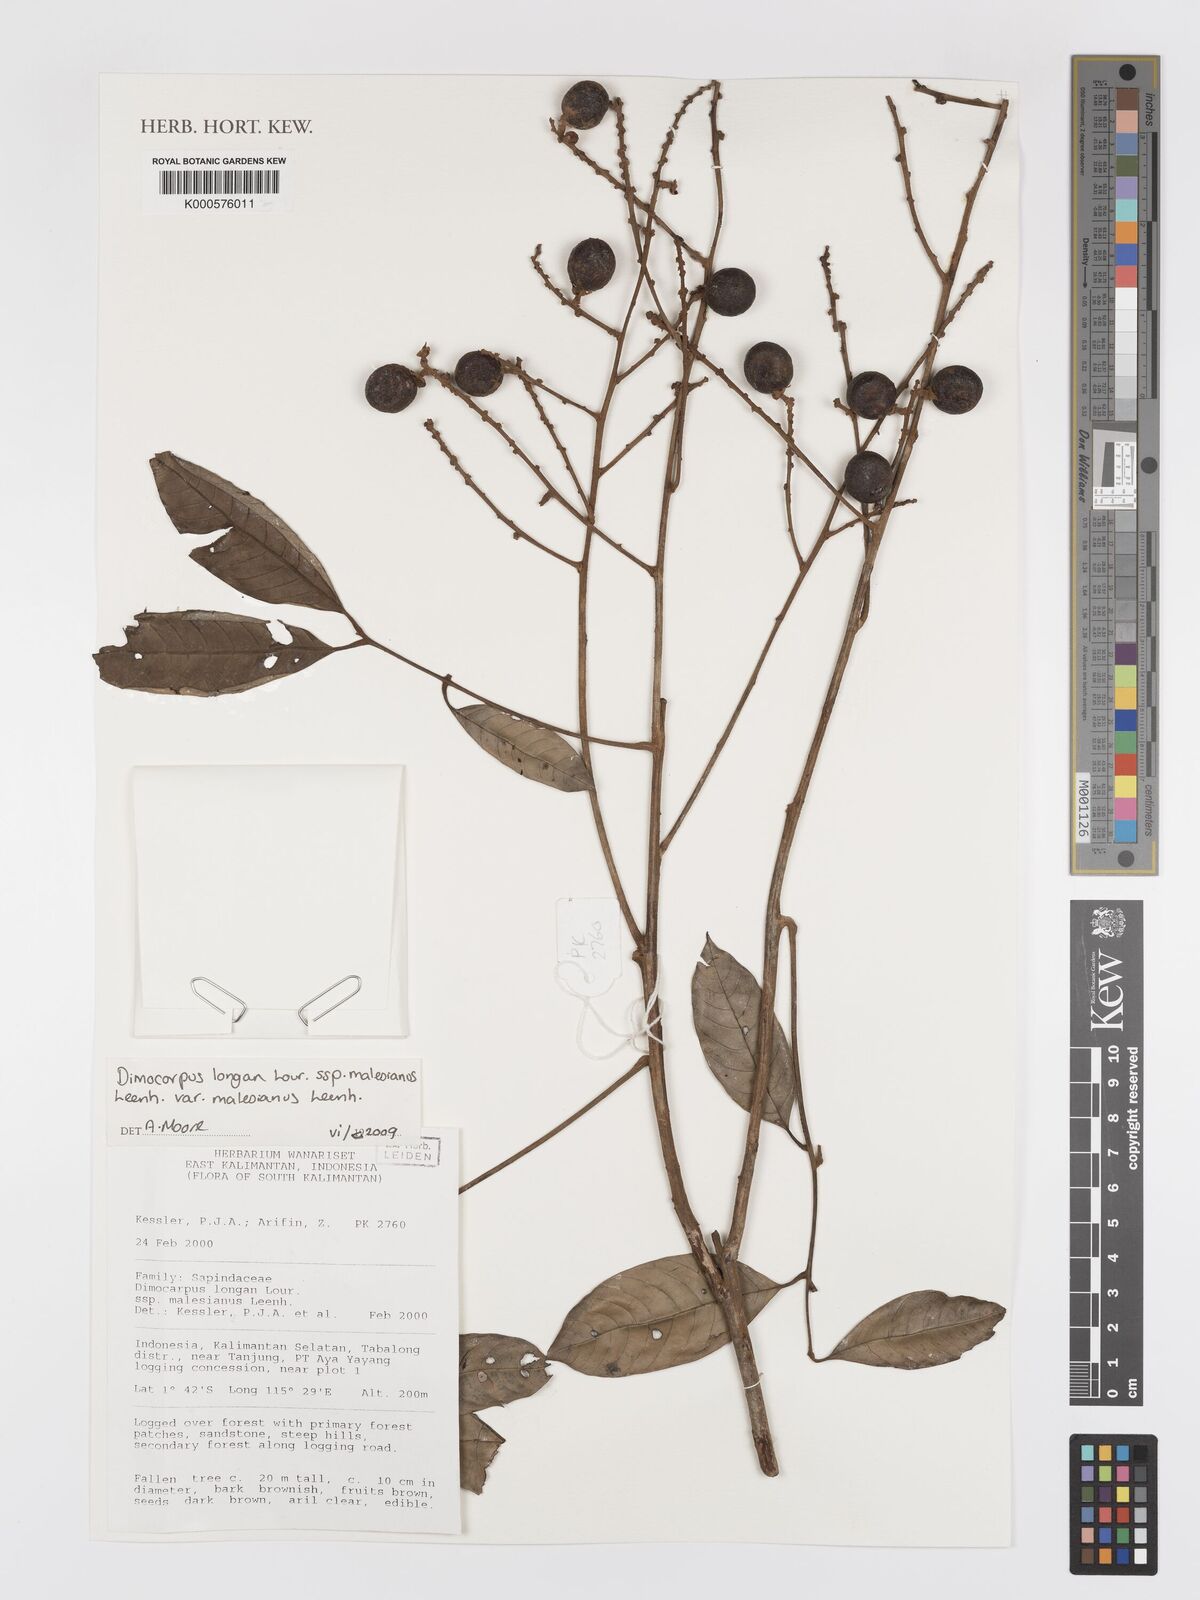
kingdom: Plantae
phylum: Tracheophyta
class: Magnoliopsida
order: Sapindales
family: Sapindaceae
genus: Nephelium
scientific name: Nephelium
